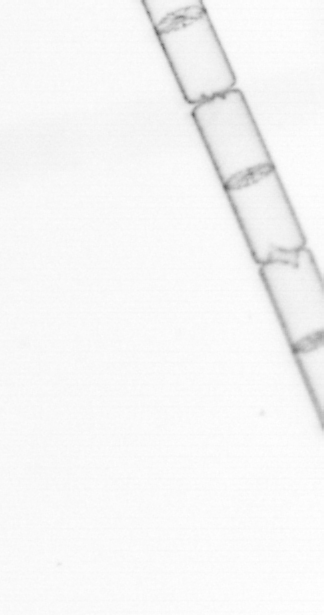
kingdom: Chromista
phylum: Ochrophyta
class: Bacillariophyceae
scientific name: Bacillariophyceae
